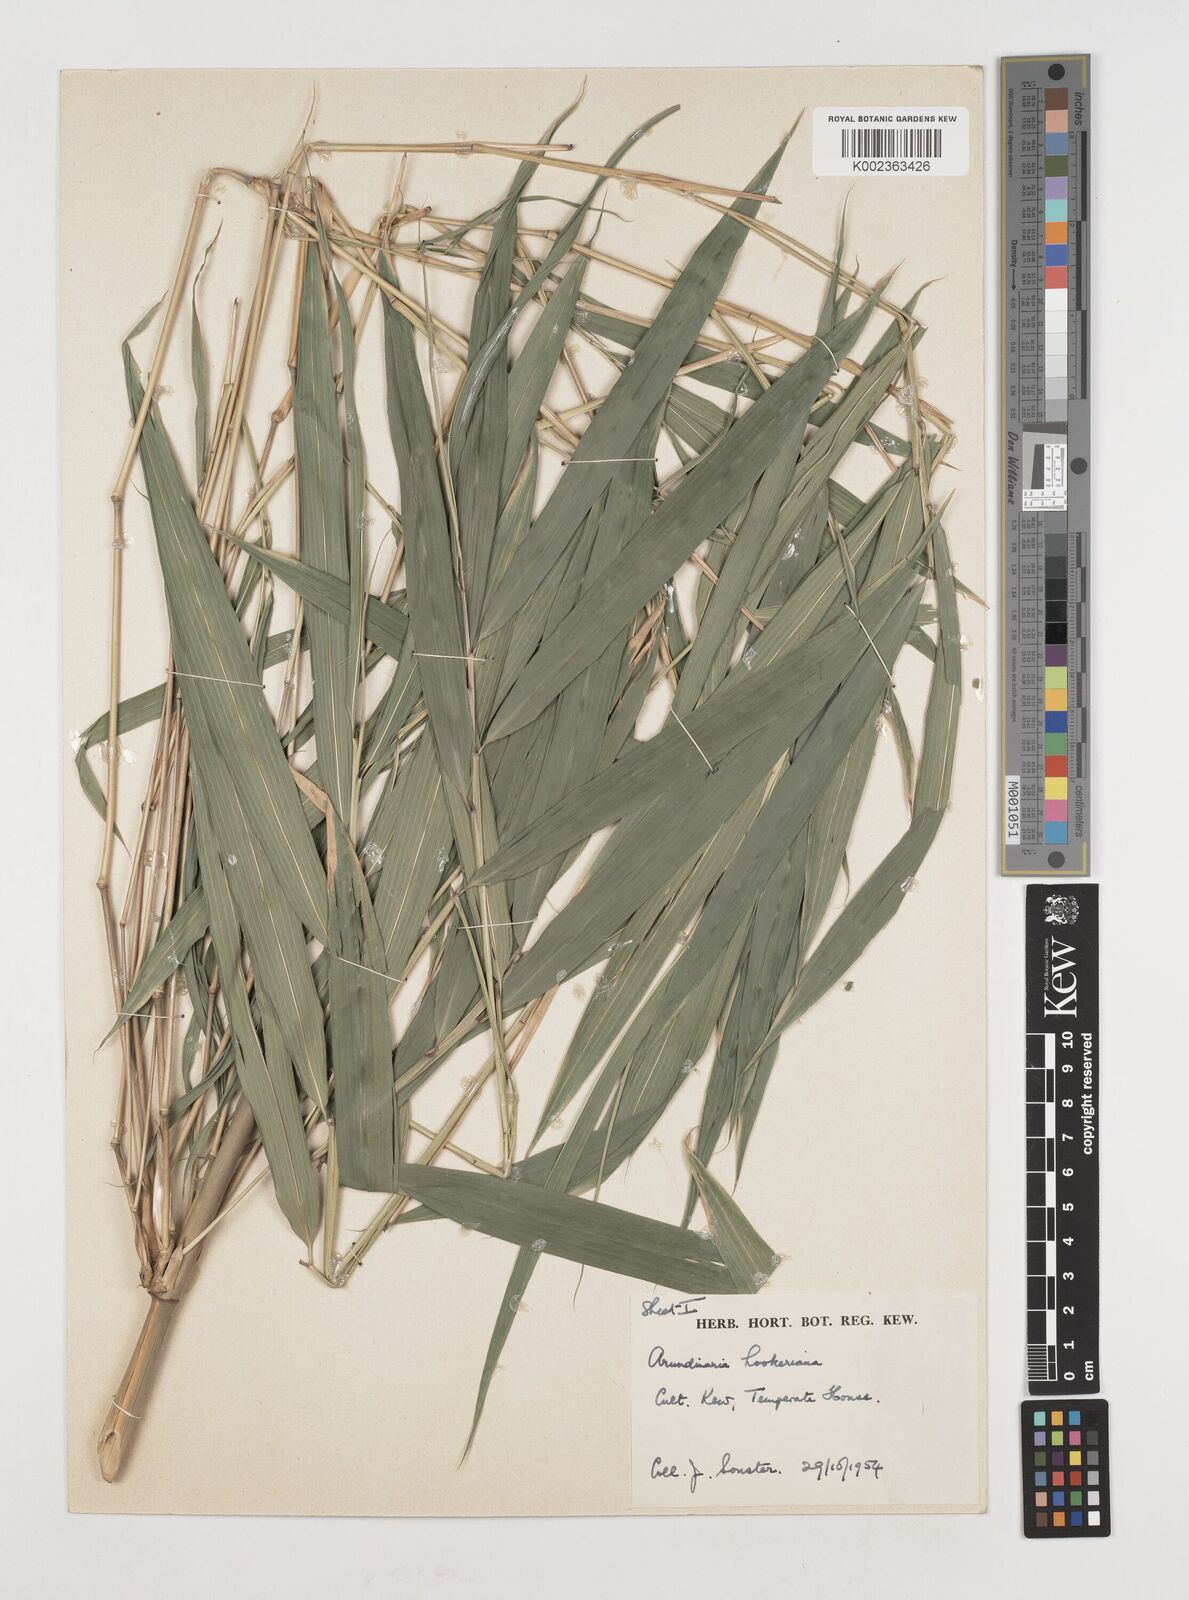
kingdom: Plantae
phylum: Tracheophyta
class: Liliopsida
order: Poales
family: Poaceae
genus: Himalayacalamus
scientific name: Himalayacalamus hookerianus
